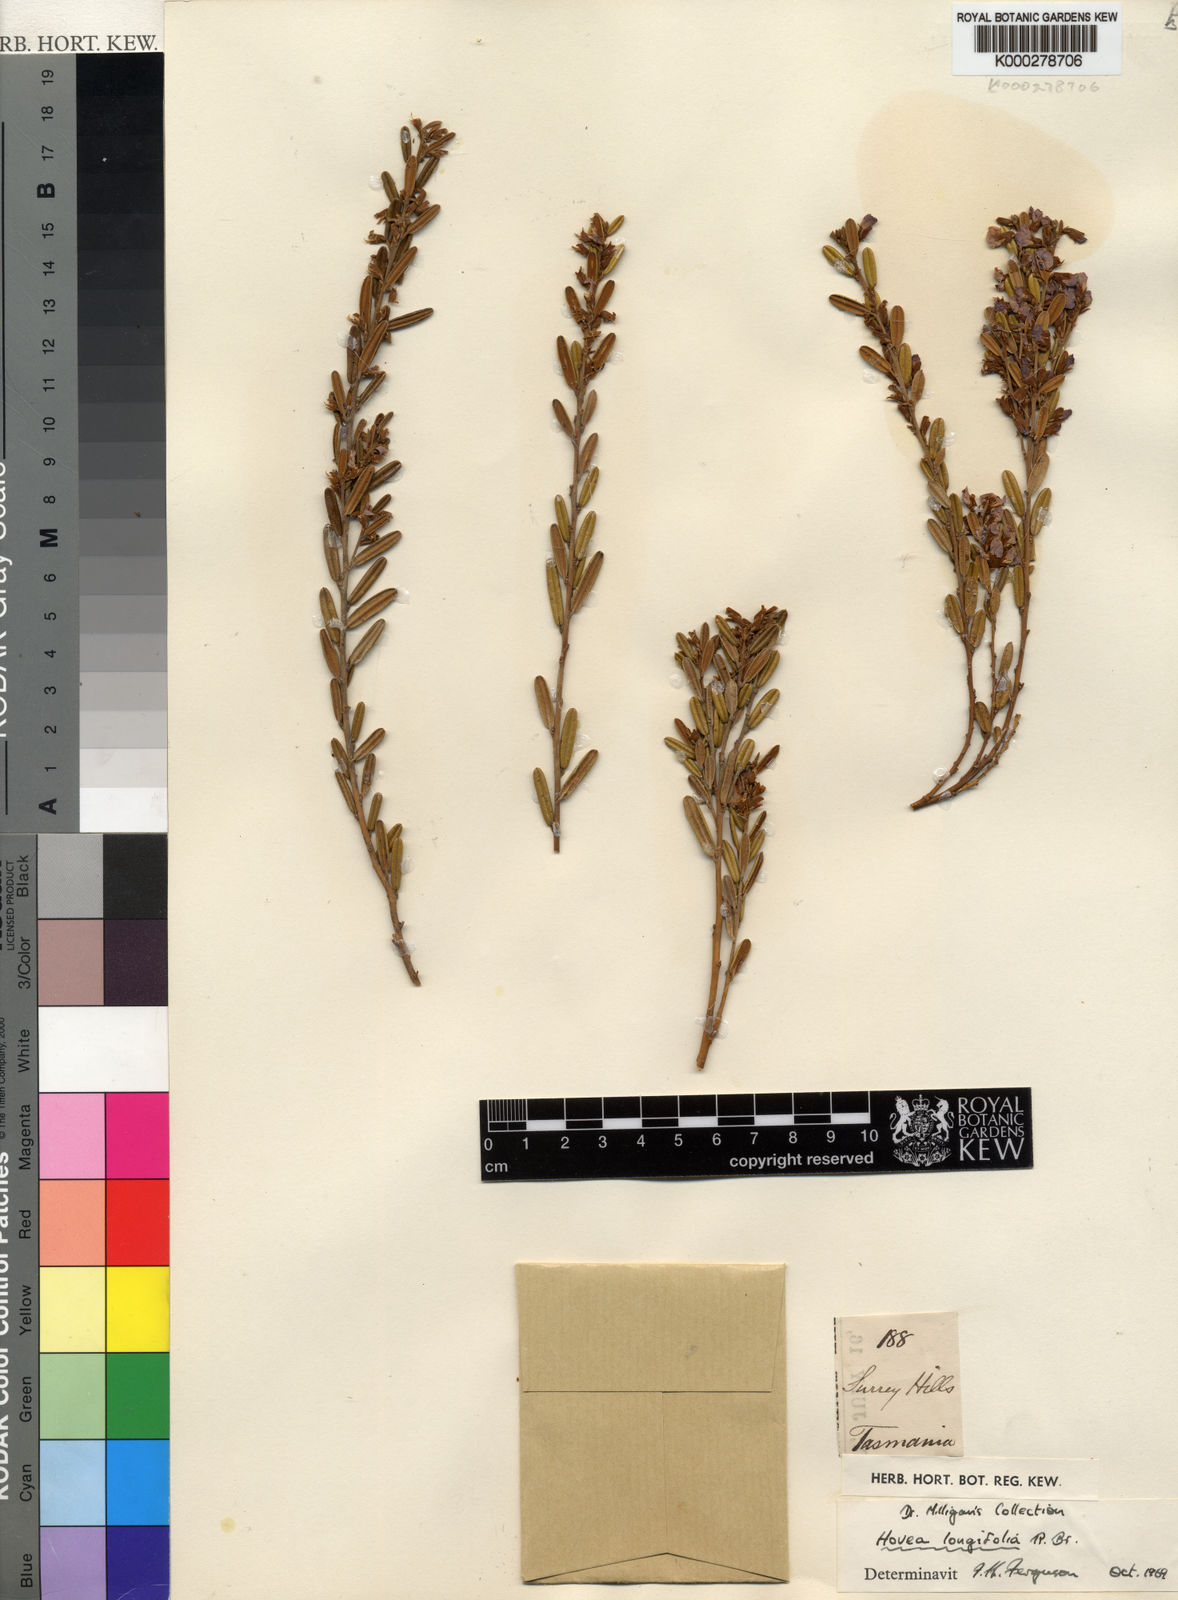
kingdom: Plantae
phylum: Tracheophyta
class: Magnoliopsida
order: Fabales
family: Fabaceae
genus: Hovea
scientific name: Hovea longifolia
